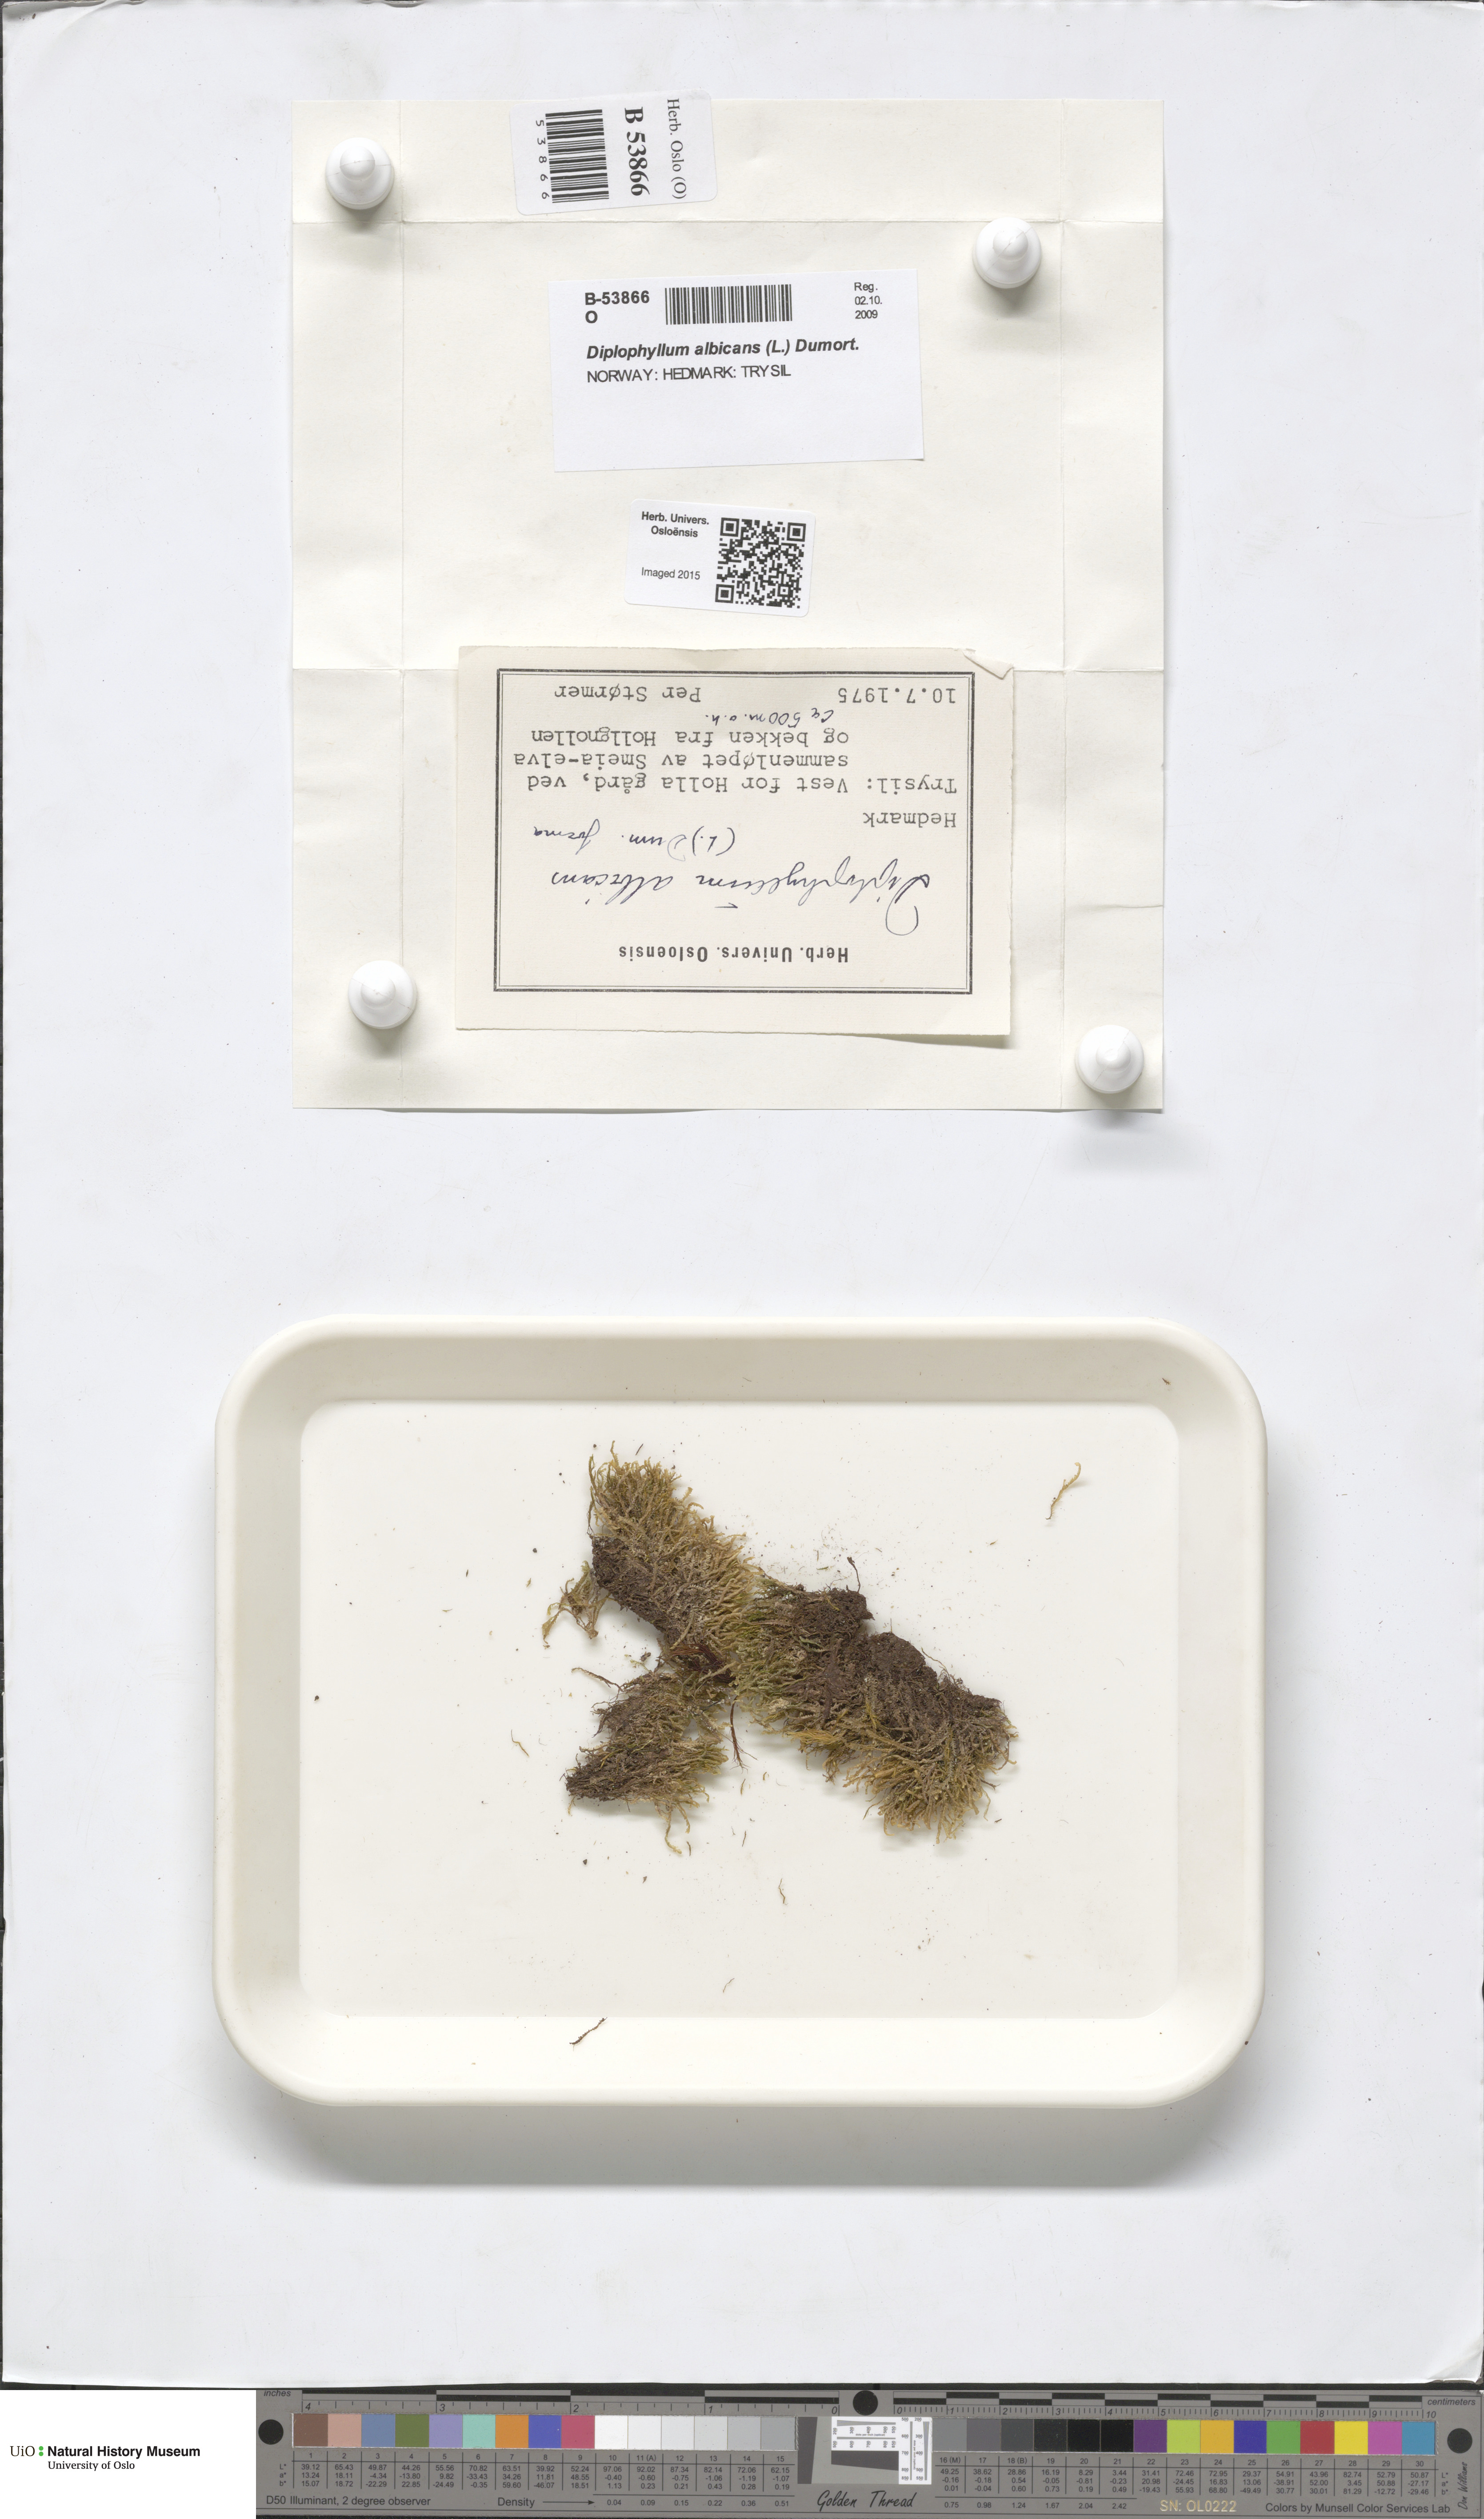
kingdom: Plantae
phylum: Marchantiophyta
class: Jungermanniopsida
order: Jungermanniales
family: Scapaniaceae
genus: Diplophyllum
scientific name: Diplophyllum albicans
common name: White earwort
